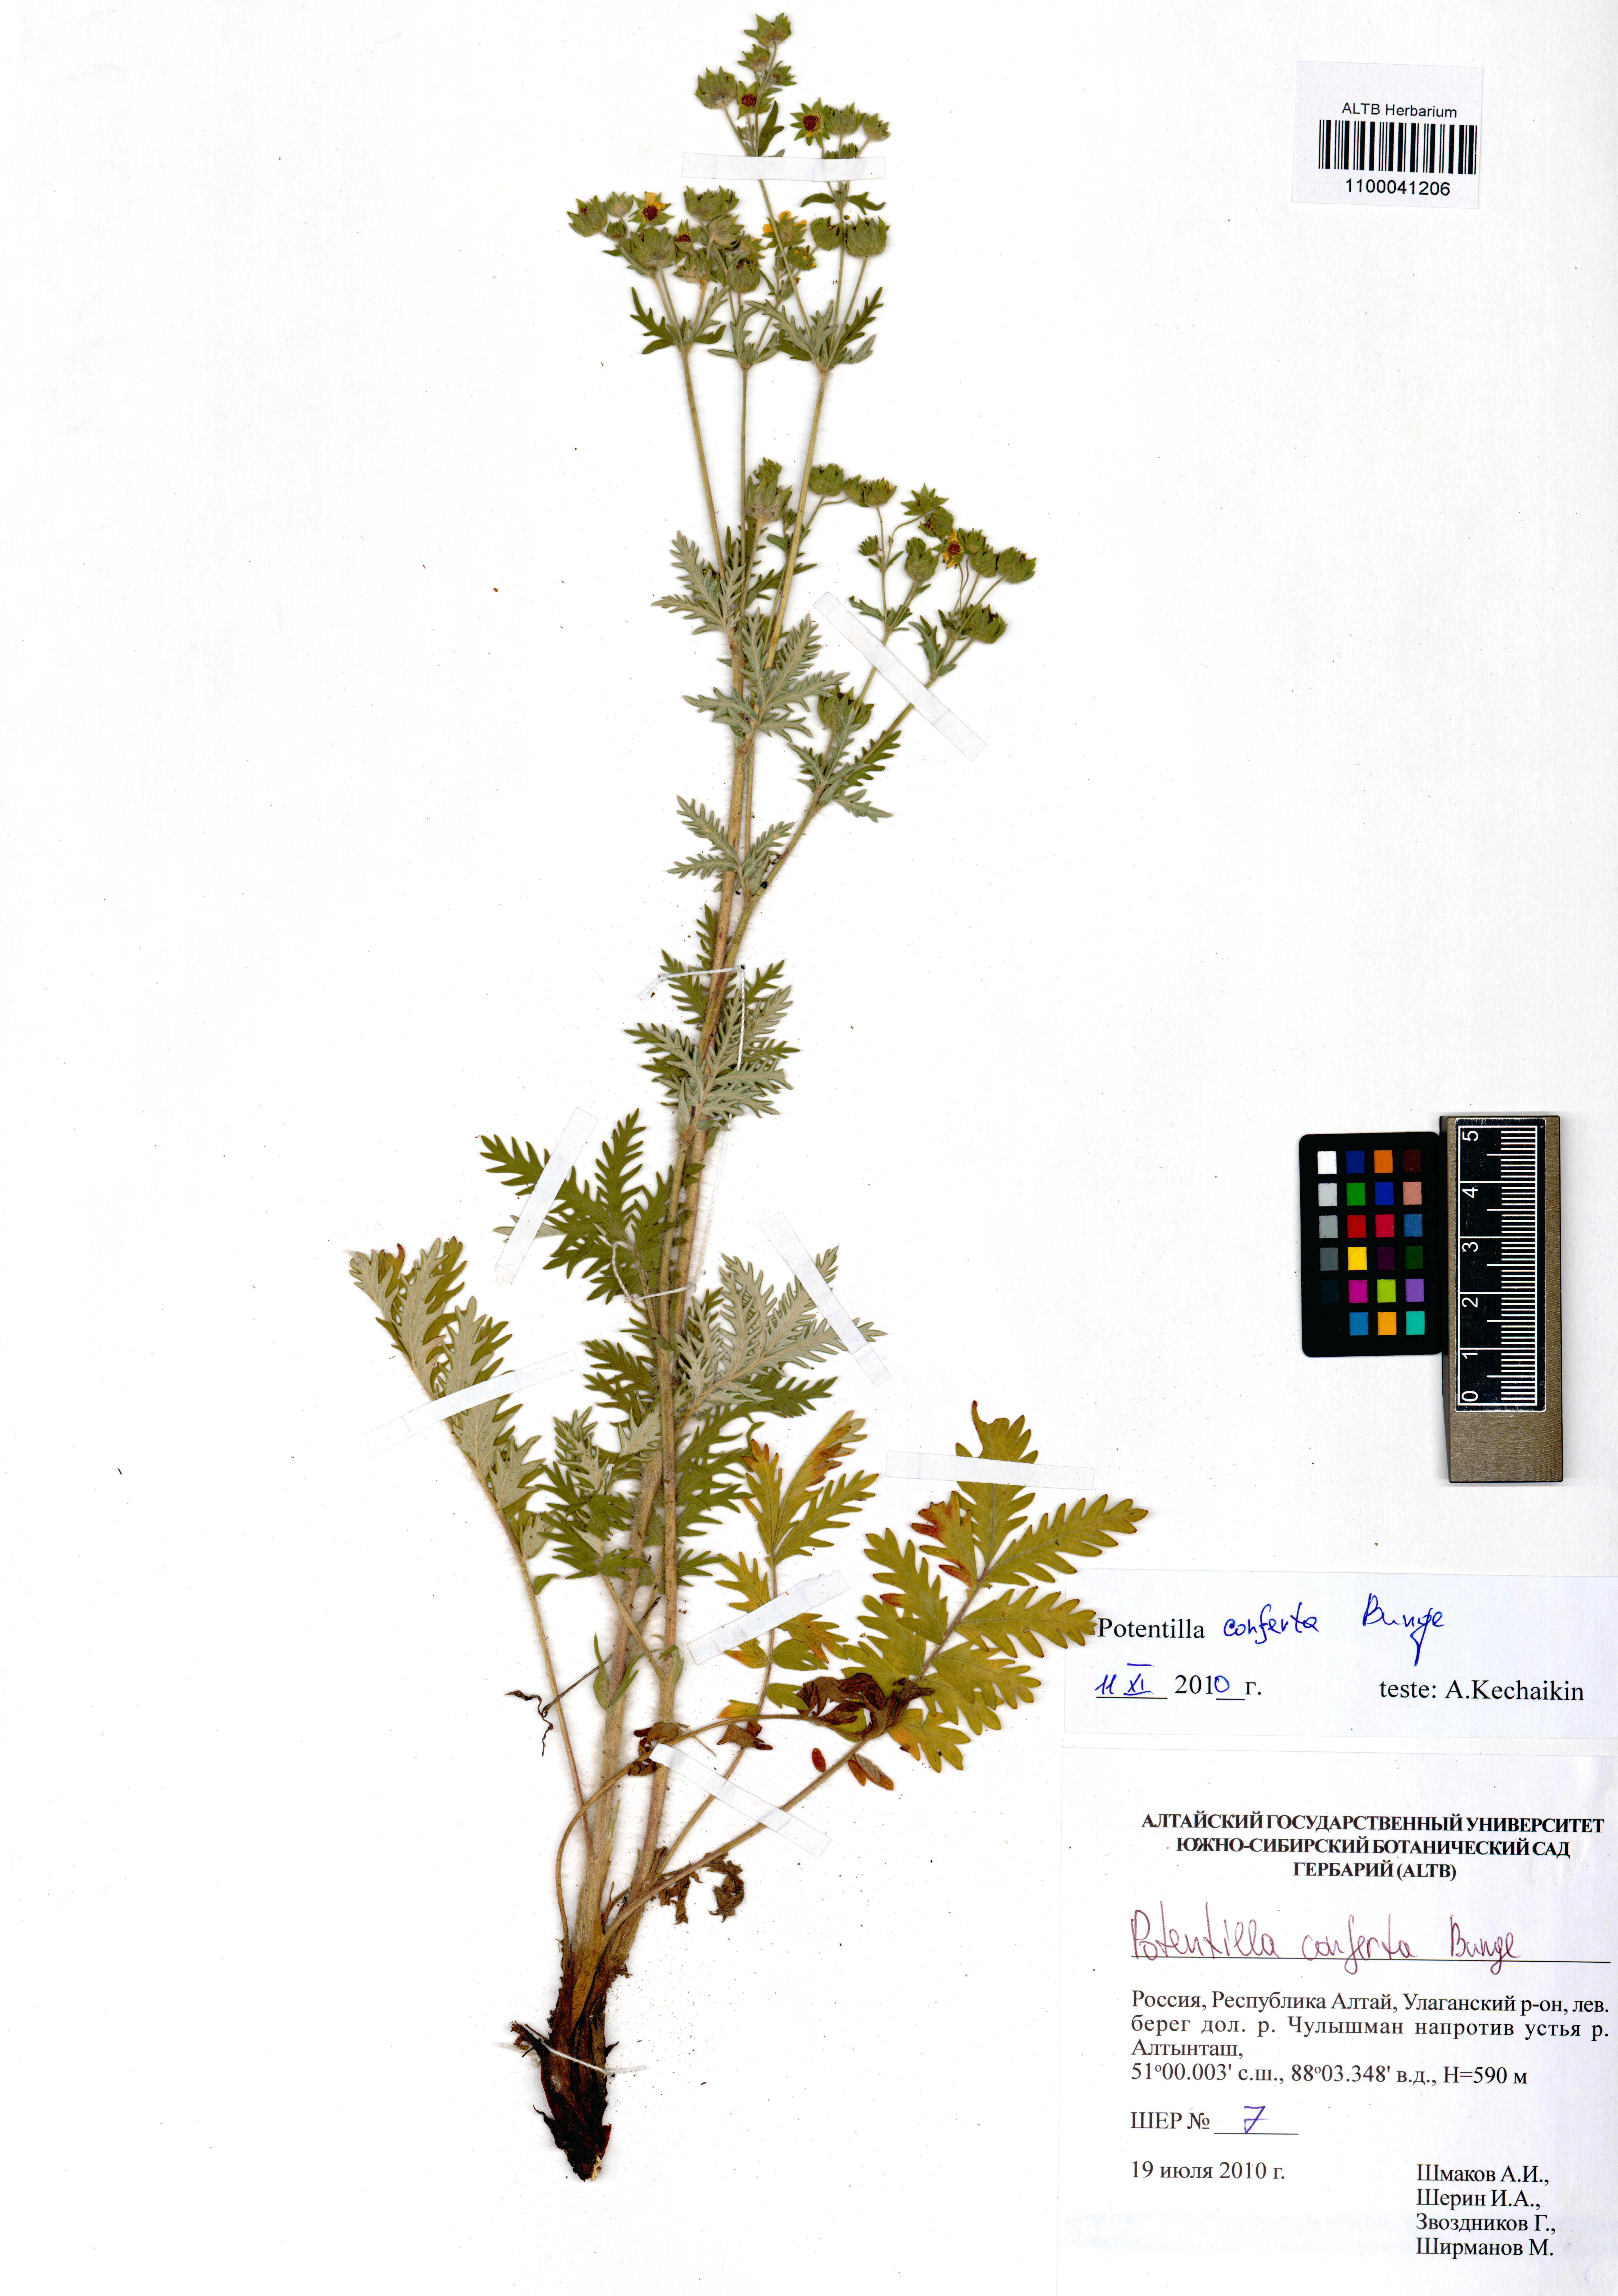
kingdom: Plantae
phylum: Tracheophyta
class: Magnoliopsida
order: Rosales
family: Rosaceae
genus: Potentilla
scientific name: Potentilla conferta
